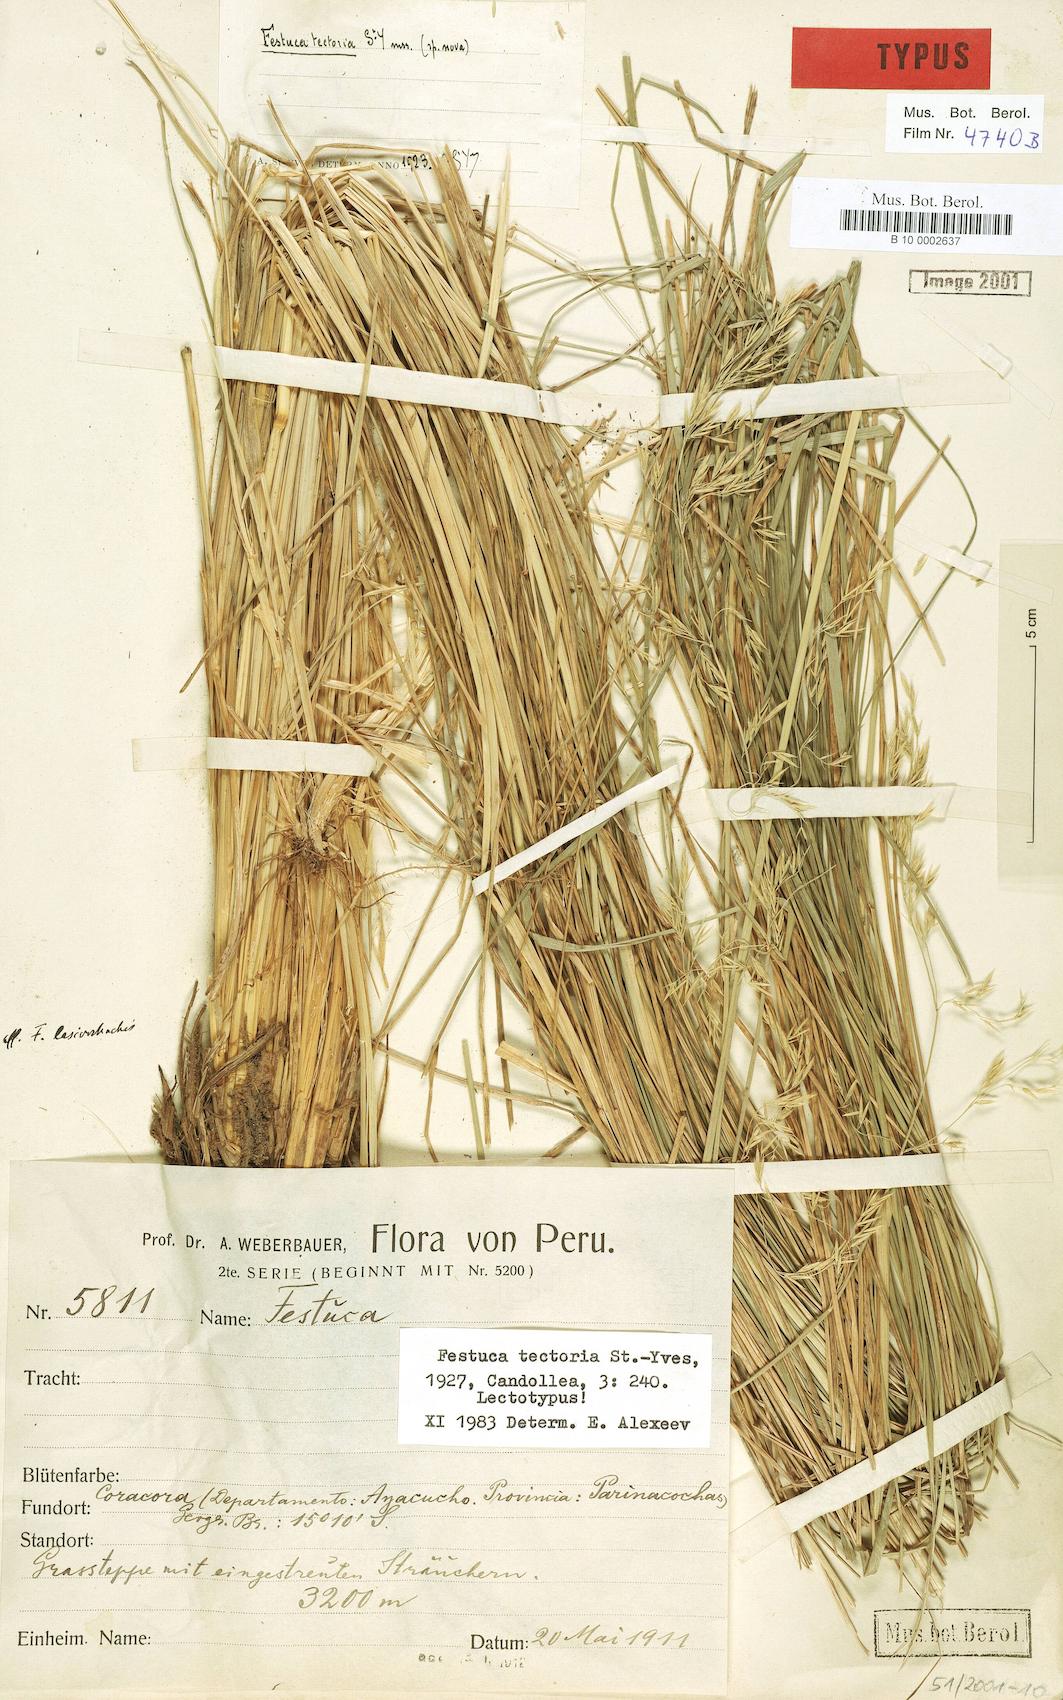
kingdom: Plantae
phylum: Tracheophyta
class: Liliopsida
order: Poales
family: Poaceae
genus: Festuca
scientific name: Festuca tectoria
